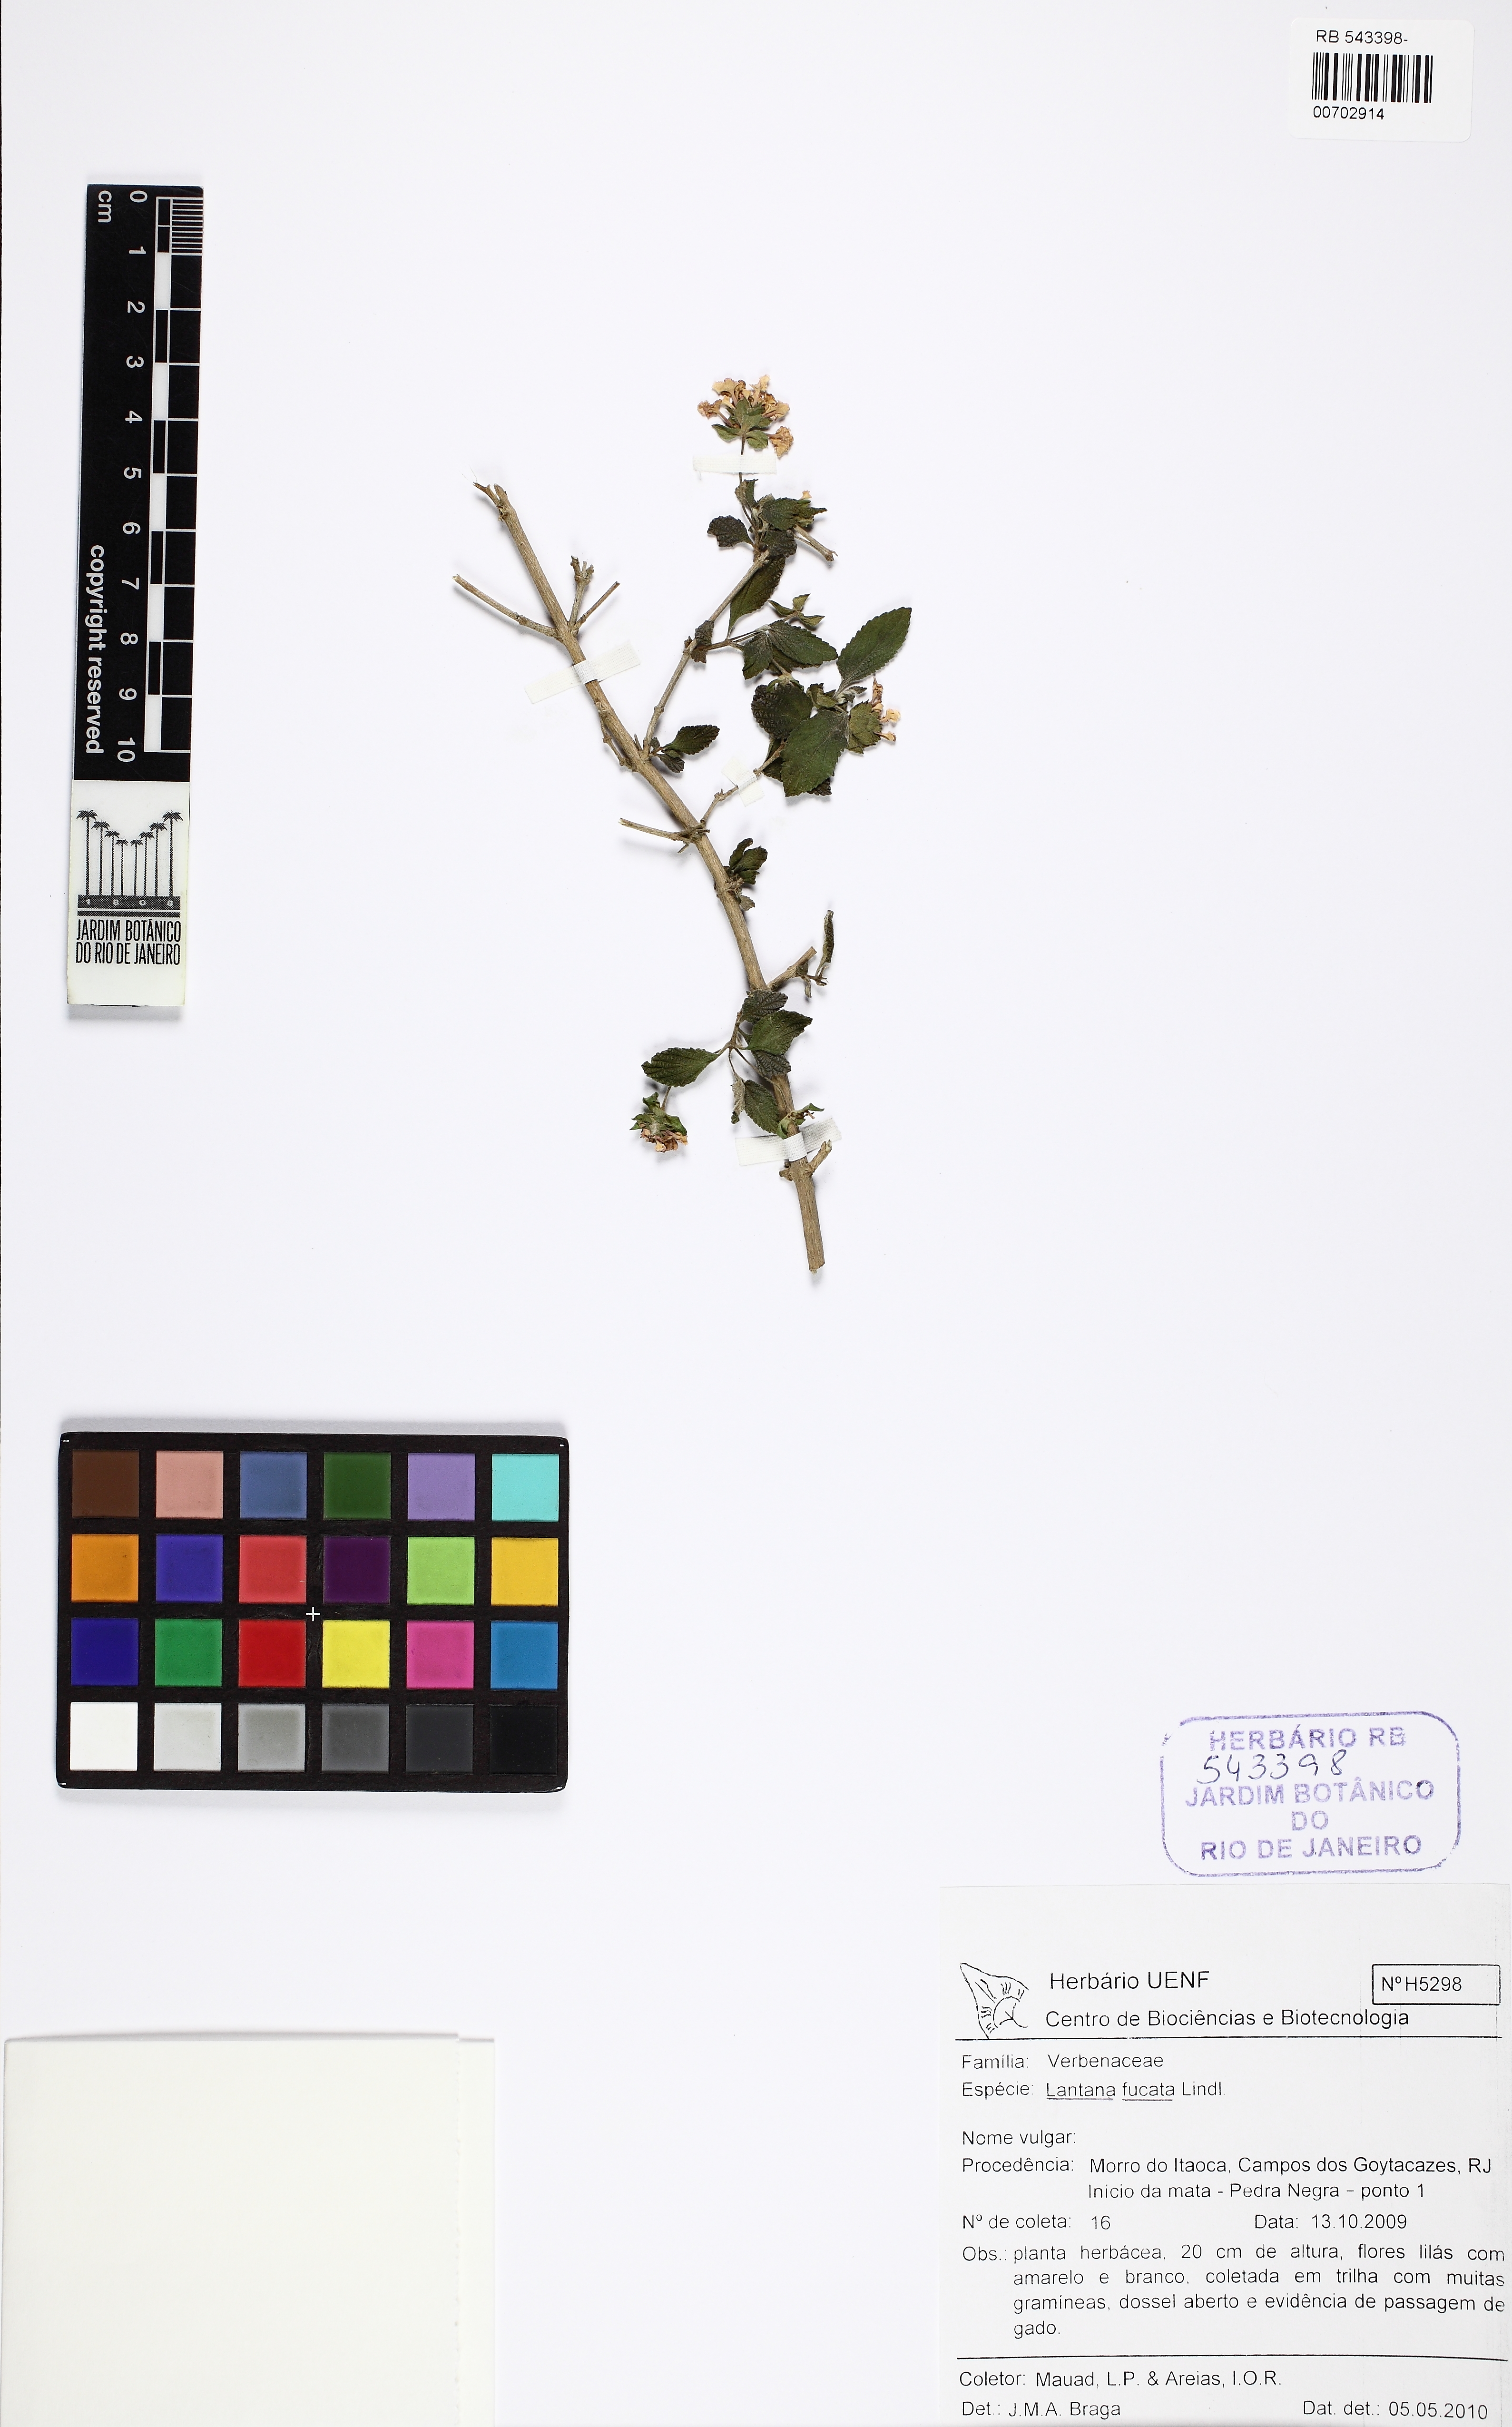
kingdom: Plantae
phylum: Tracheophyta
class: Magnoliopsida
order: Lamiales
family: Verbenaceae
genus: Lantana
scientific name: Lantana fucata
